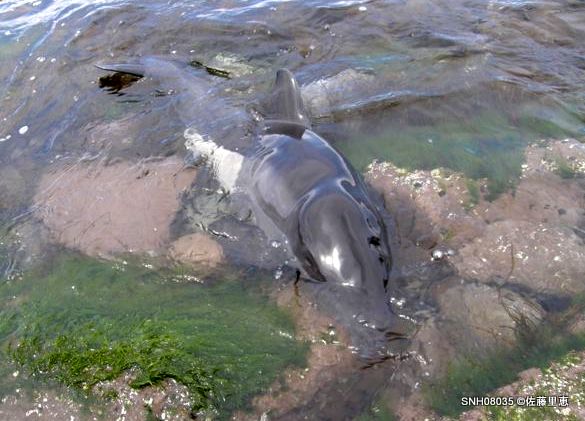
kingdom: Animalia
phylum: Chordata
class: Mammalia
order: Cetacea
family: Phocoenidae
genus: Phocoenoides
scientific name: Phocoenoides dalli
